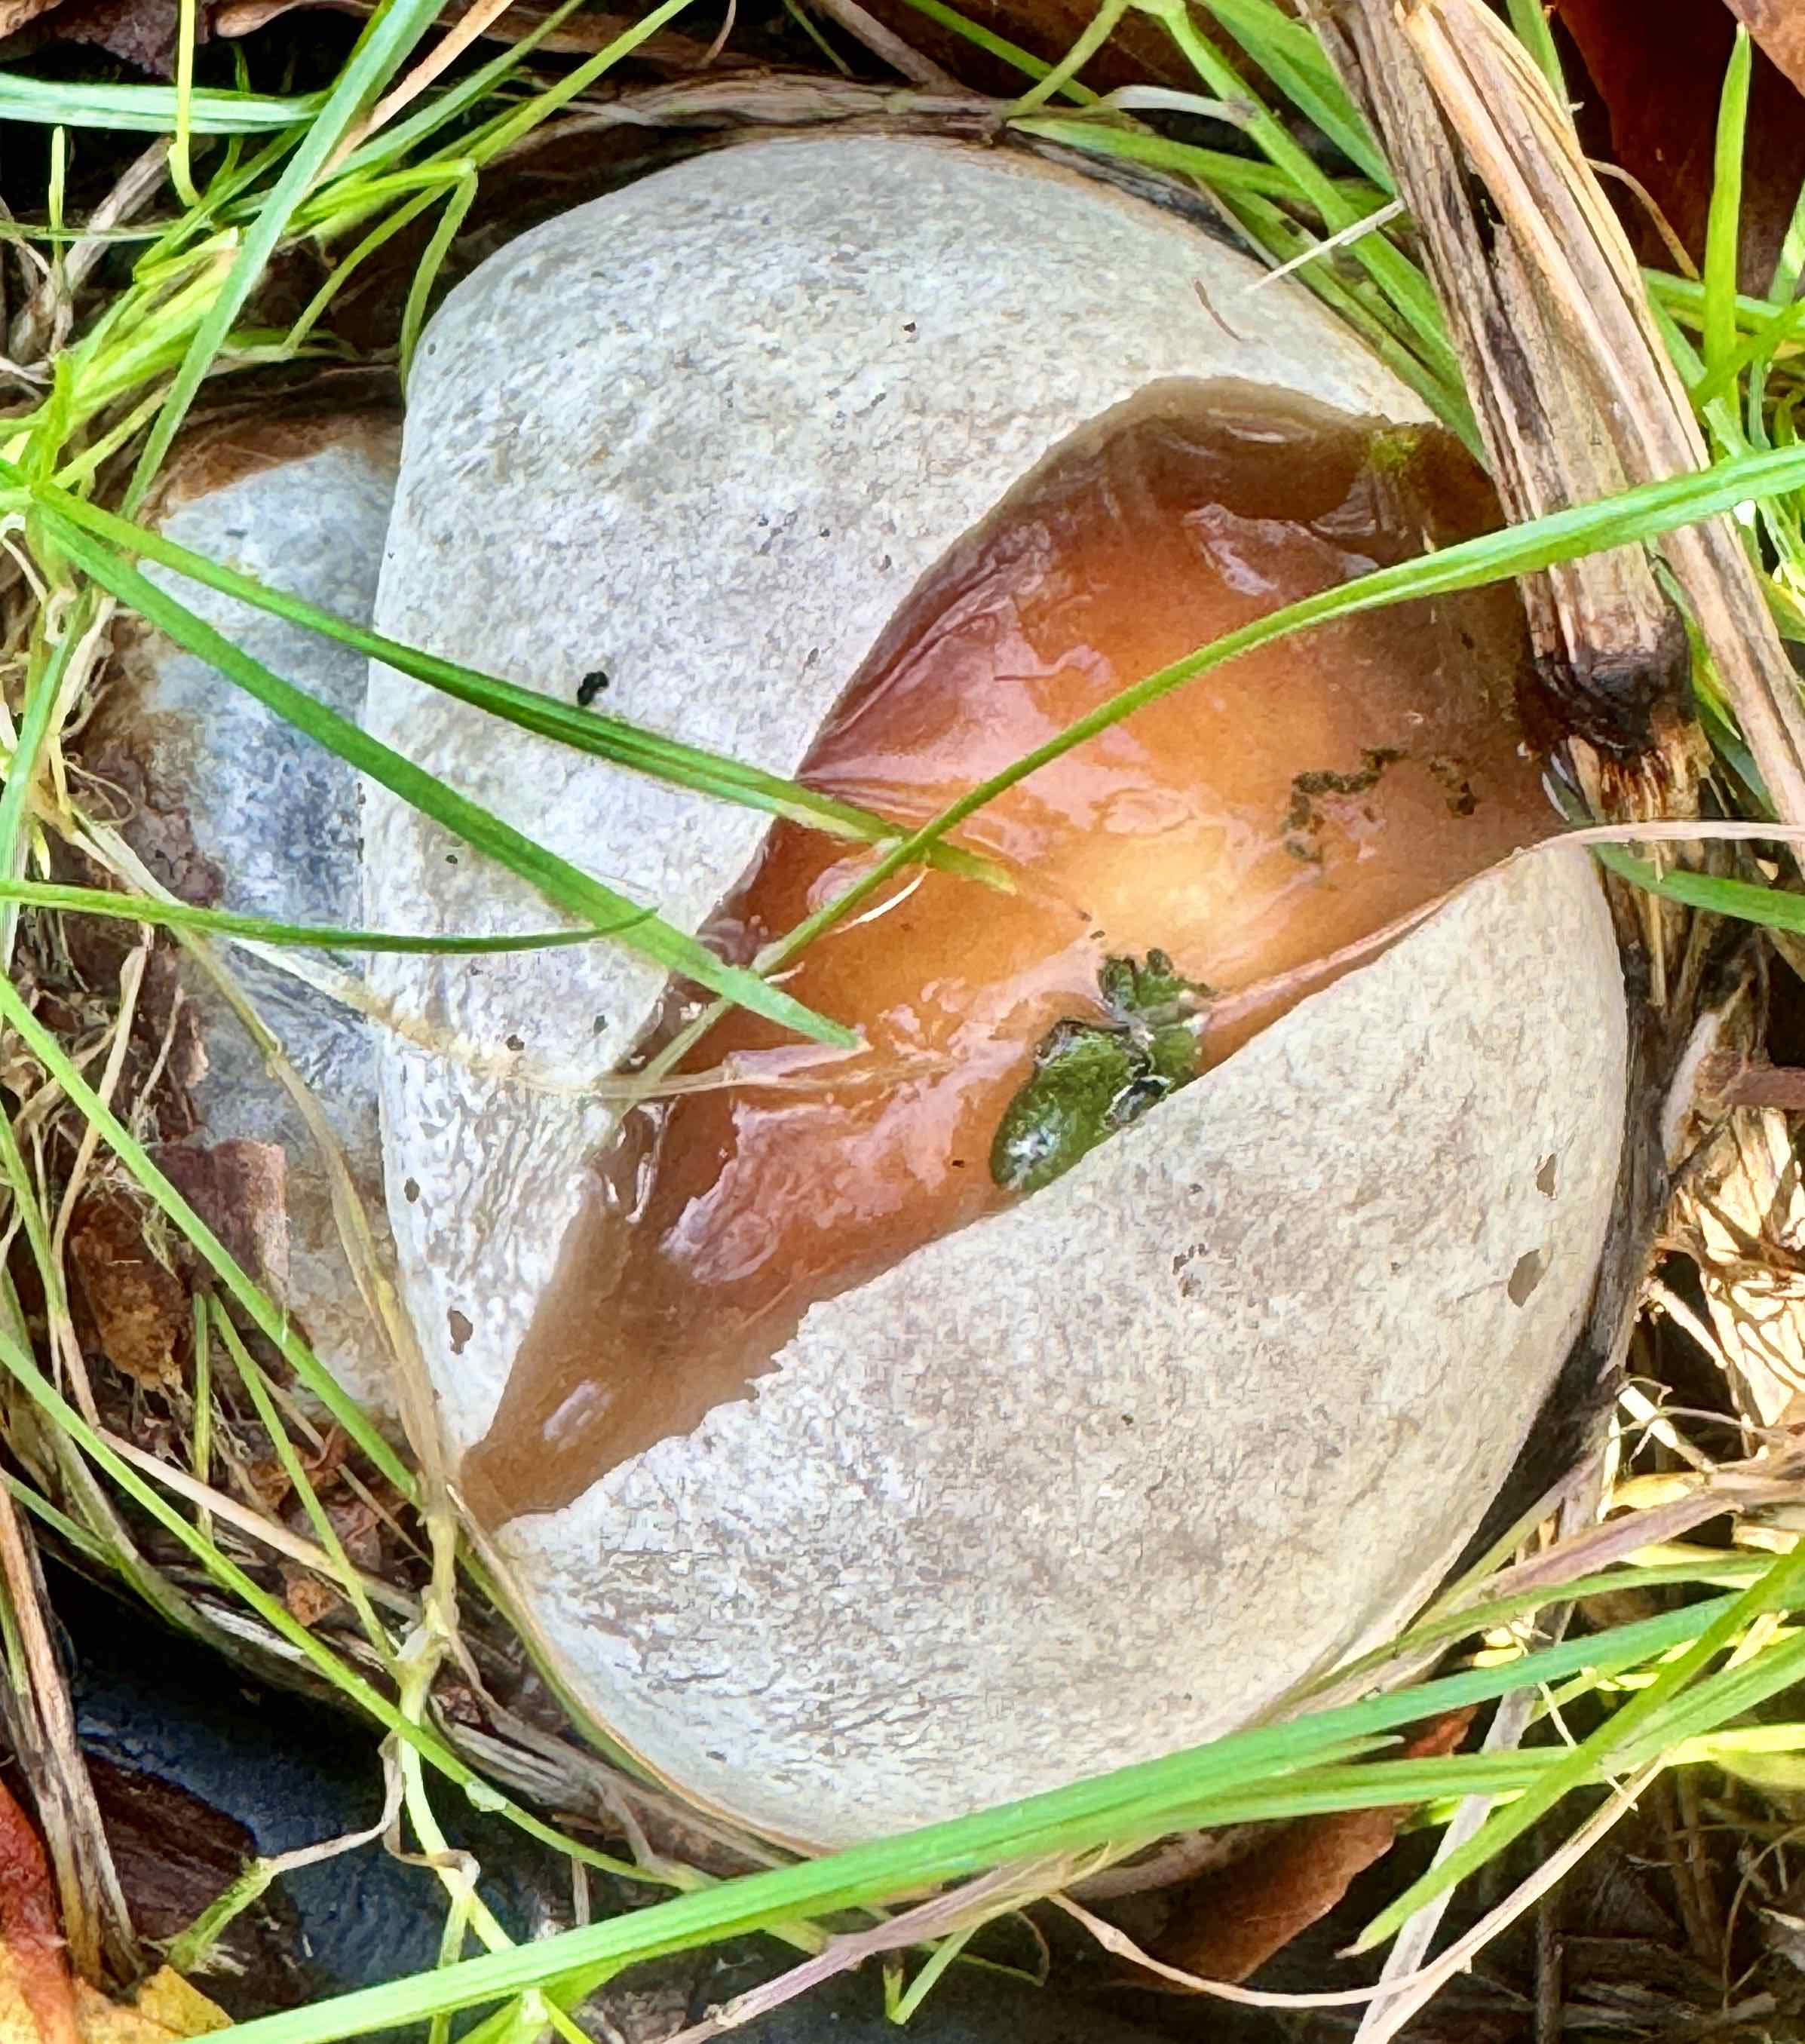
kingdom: Fungi
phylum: Basidiomycota
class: Agaricomycetes
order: Phallales
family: Phallaceae
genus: Phallus
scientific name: Phallus impudicus
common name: almindelig stinksvamp
